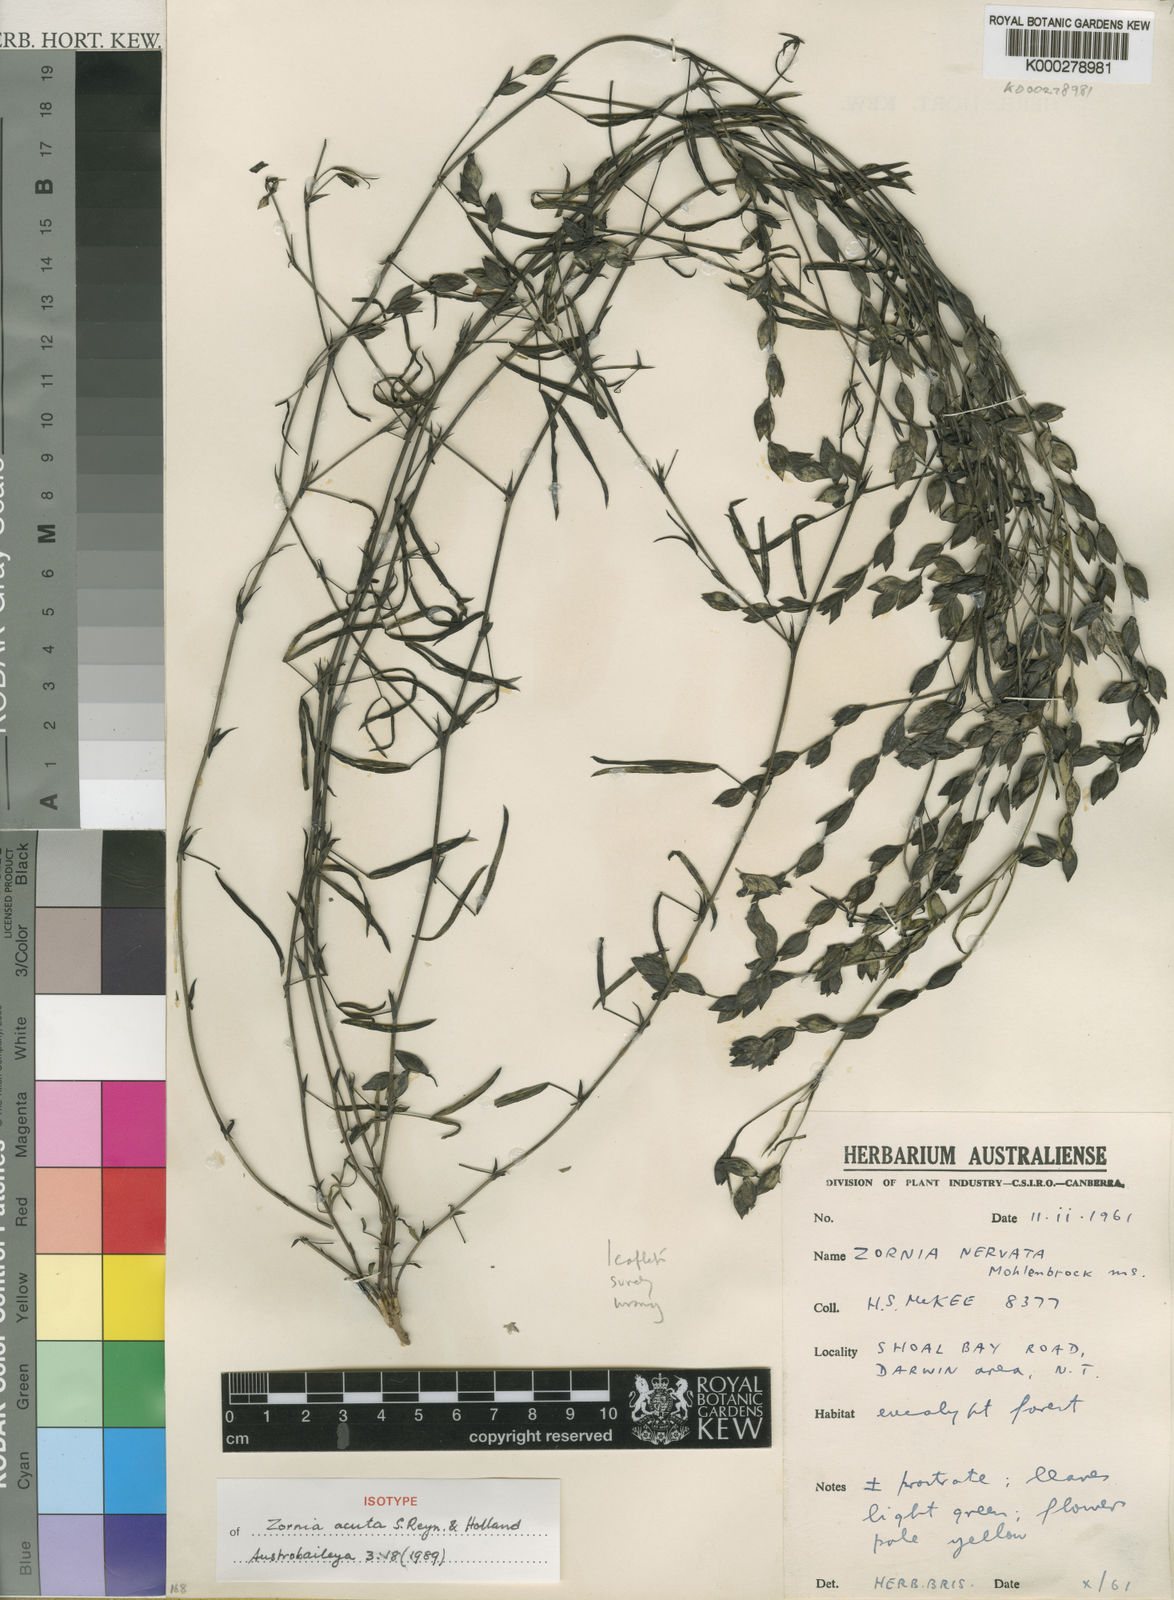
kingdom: Plantae
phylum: Tracheophyta
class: Magnoliopsida
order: Fabales
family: Fabaceae
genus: Zornia
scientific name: Zornia acuta
